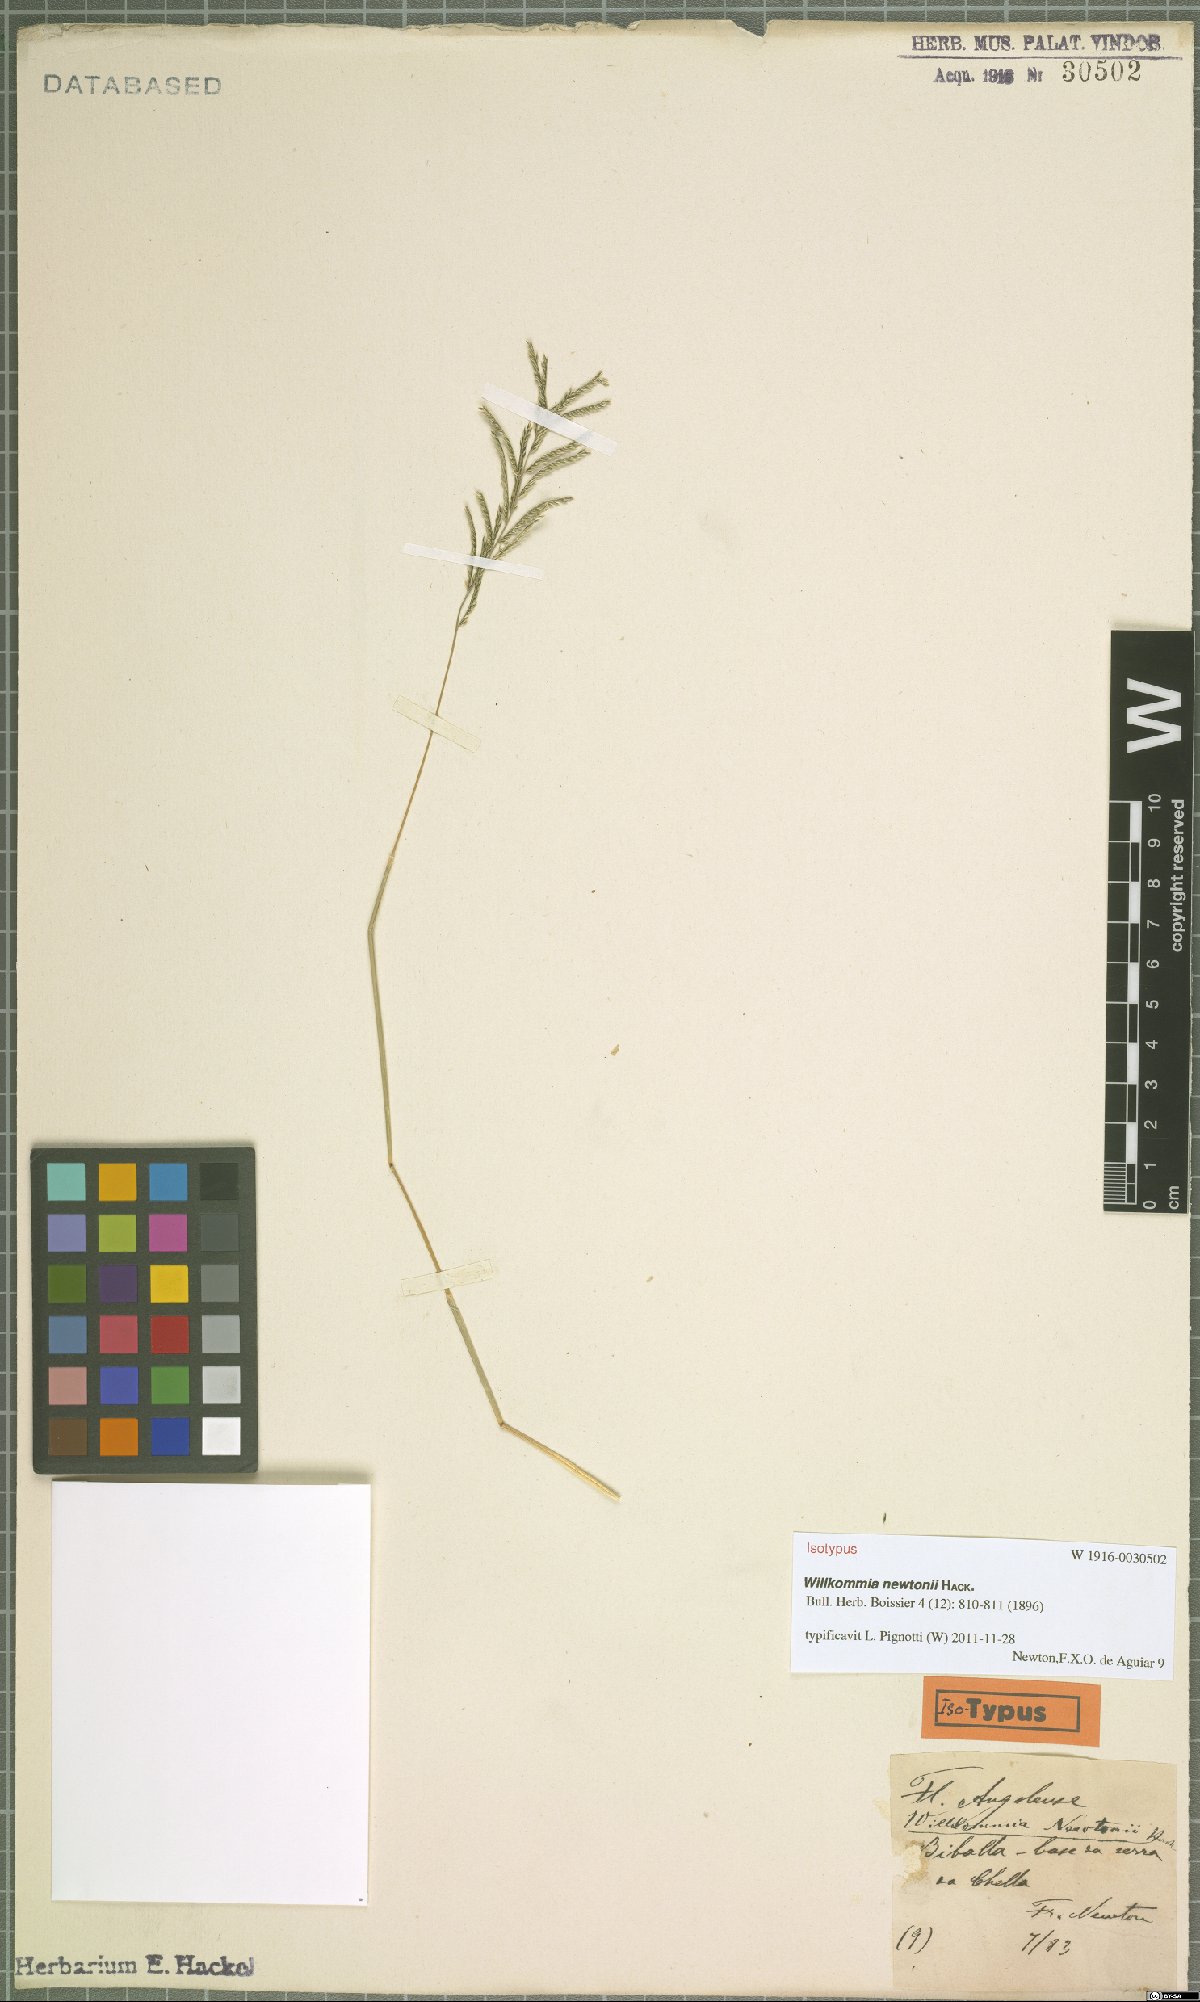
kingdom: Plantae
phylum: Tracheophyta
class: Liliopsida
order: Poales
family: Poaceae
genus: Willkommia
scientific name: Willkommia newtonii
